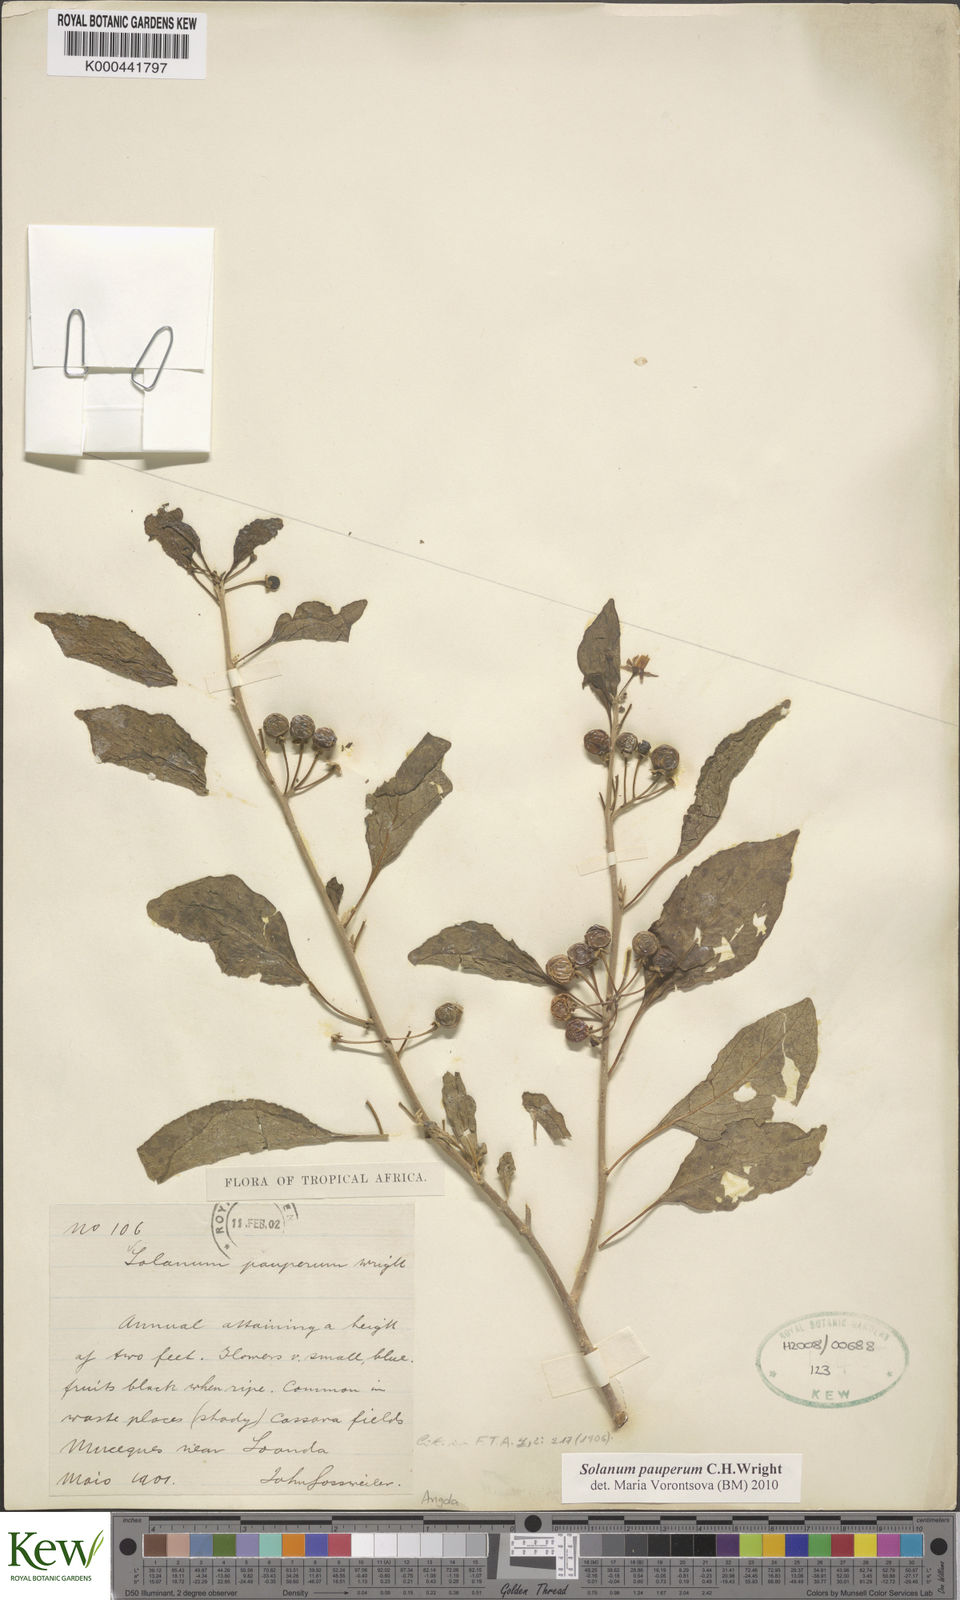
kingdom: Plantae
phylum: Tracheophyta
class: Magnoliopsida
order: Solanales
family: Solanaceae
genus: Solanum
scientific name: Solanum anomalum
